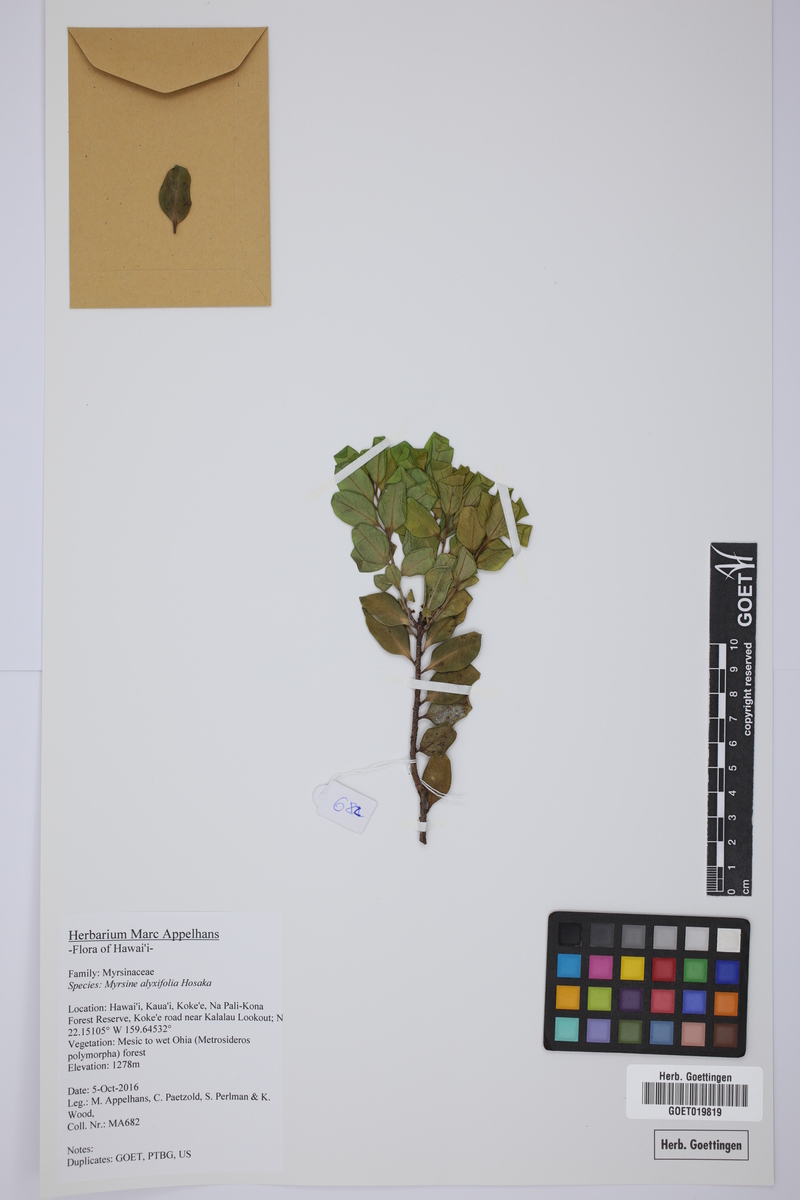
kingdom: Plantae
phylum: Tracheophyta
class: Magnoliopsida
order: Ericales
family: Primulaceae
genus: Myrsine
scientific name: Myrsine alyxifolia
